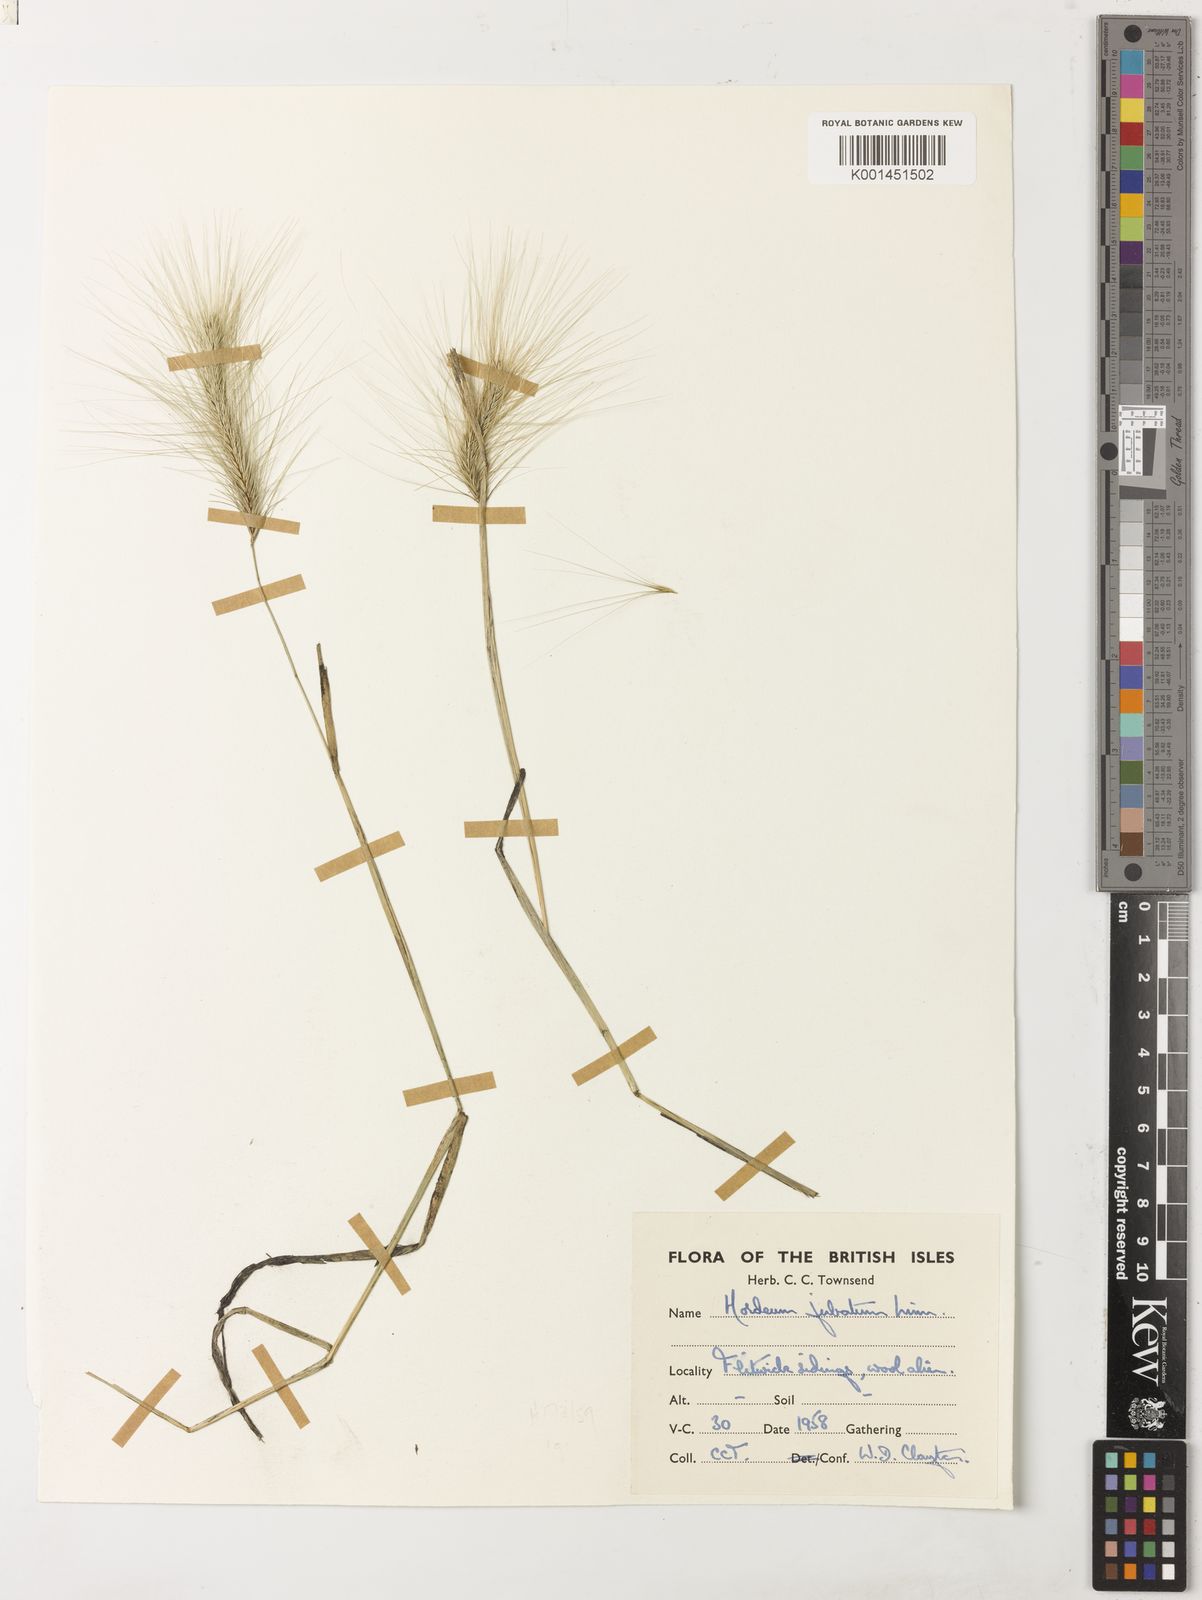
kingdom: Plantae
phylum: Tracheophyta
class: Liliopsida
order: Poales
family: Poaceae
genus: Hordeum
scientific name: Hordeum jubatum
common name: Foxtail barley
